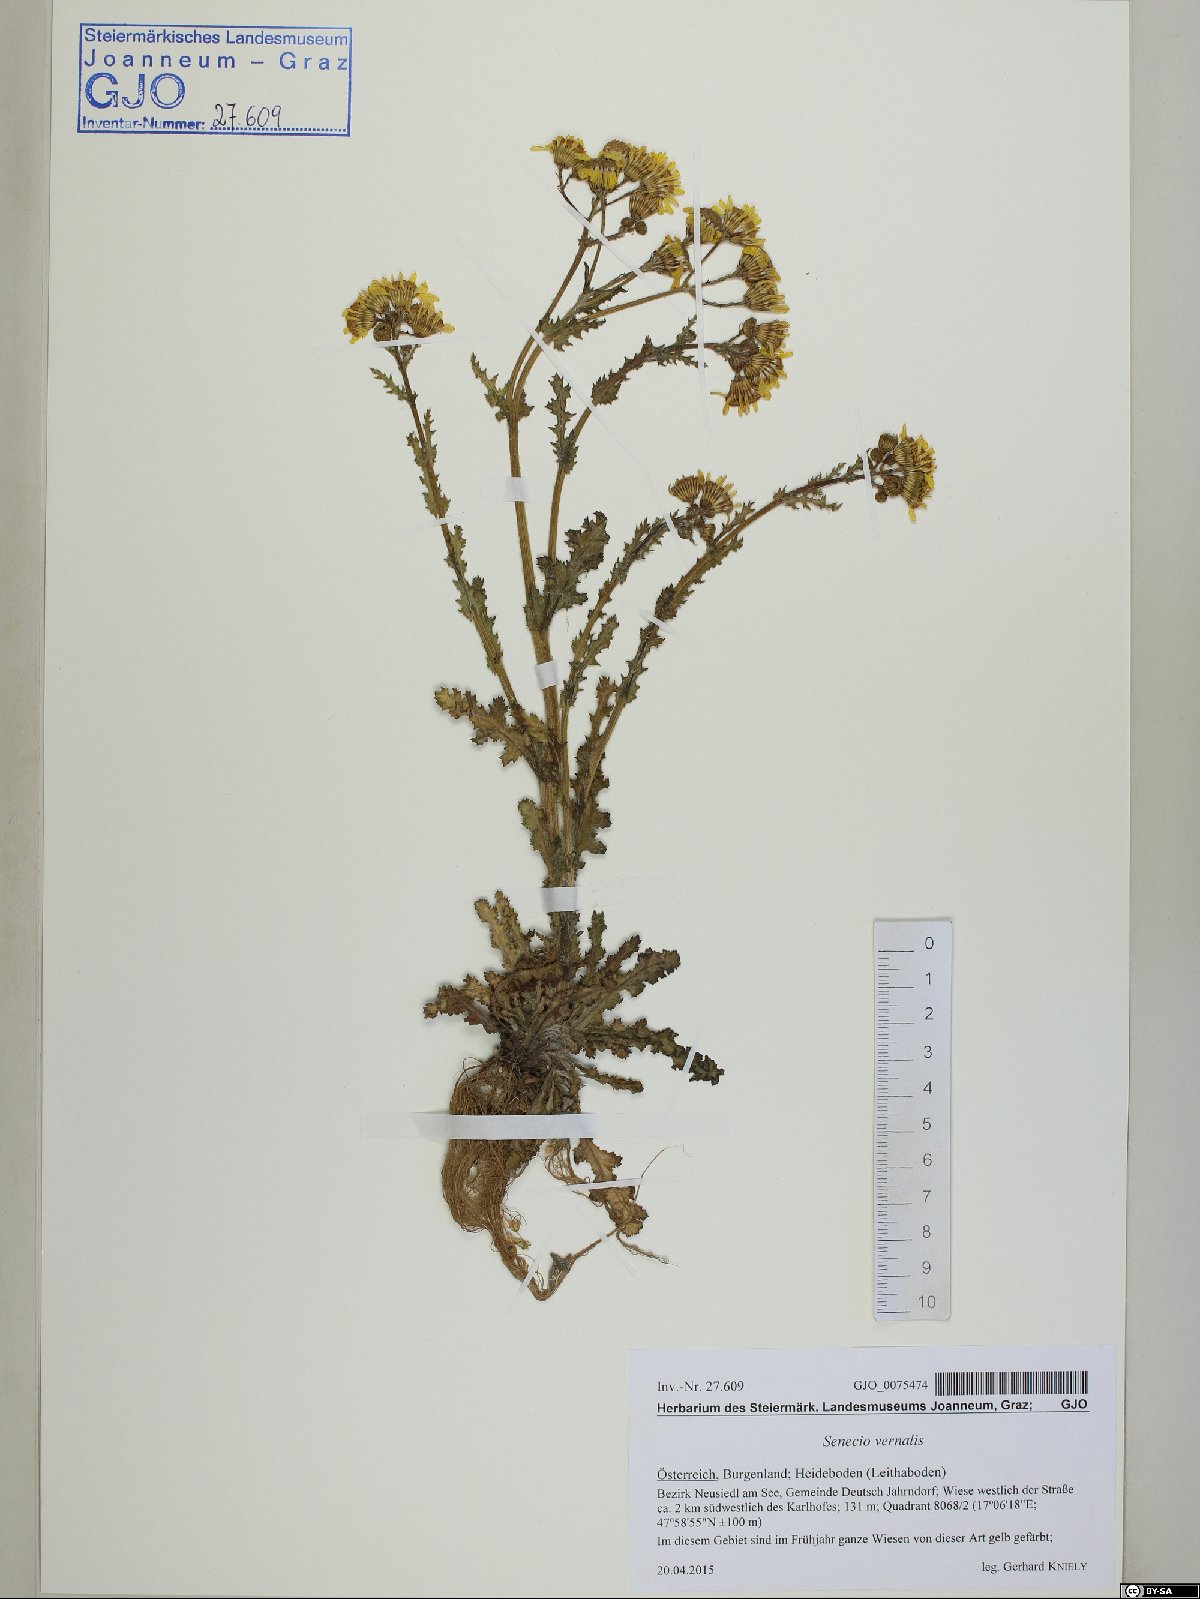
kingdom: Plantae
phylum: Tracheophyta
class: Magnoliopsida
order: Asterales
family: Asteraceae
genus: Senecio
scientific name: Senecio vernalis
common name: Eastern groundsel
